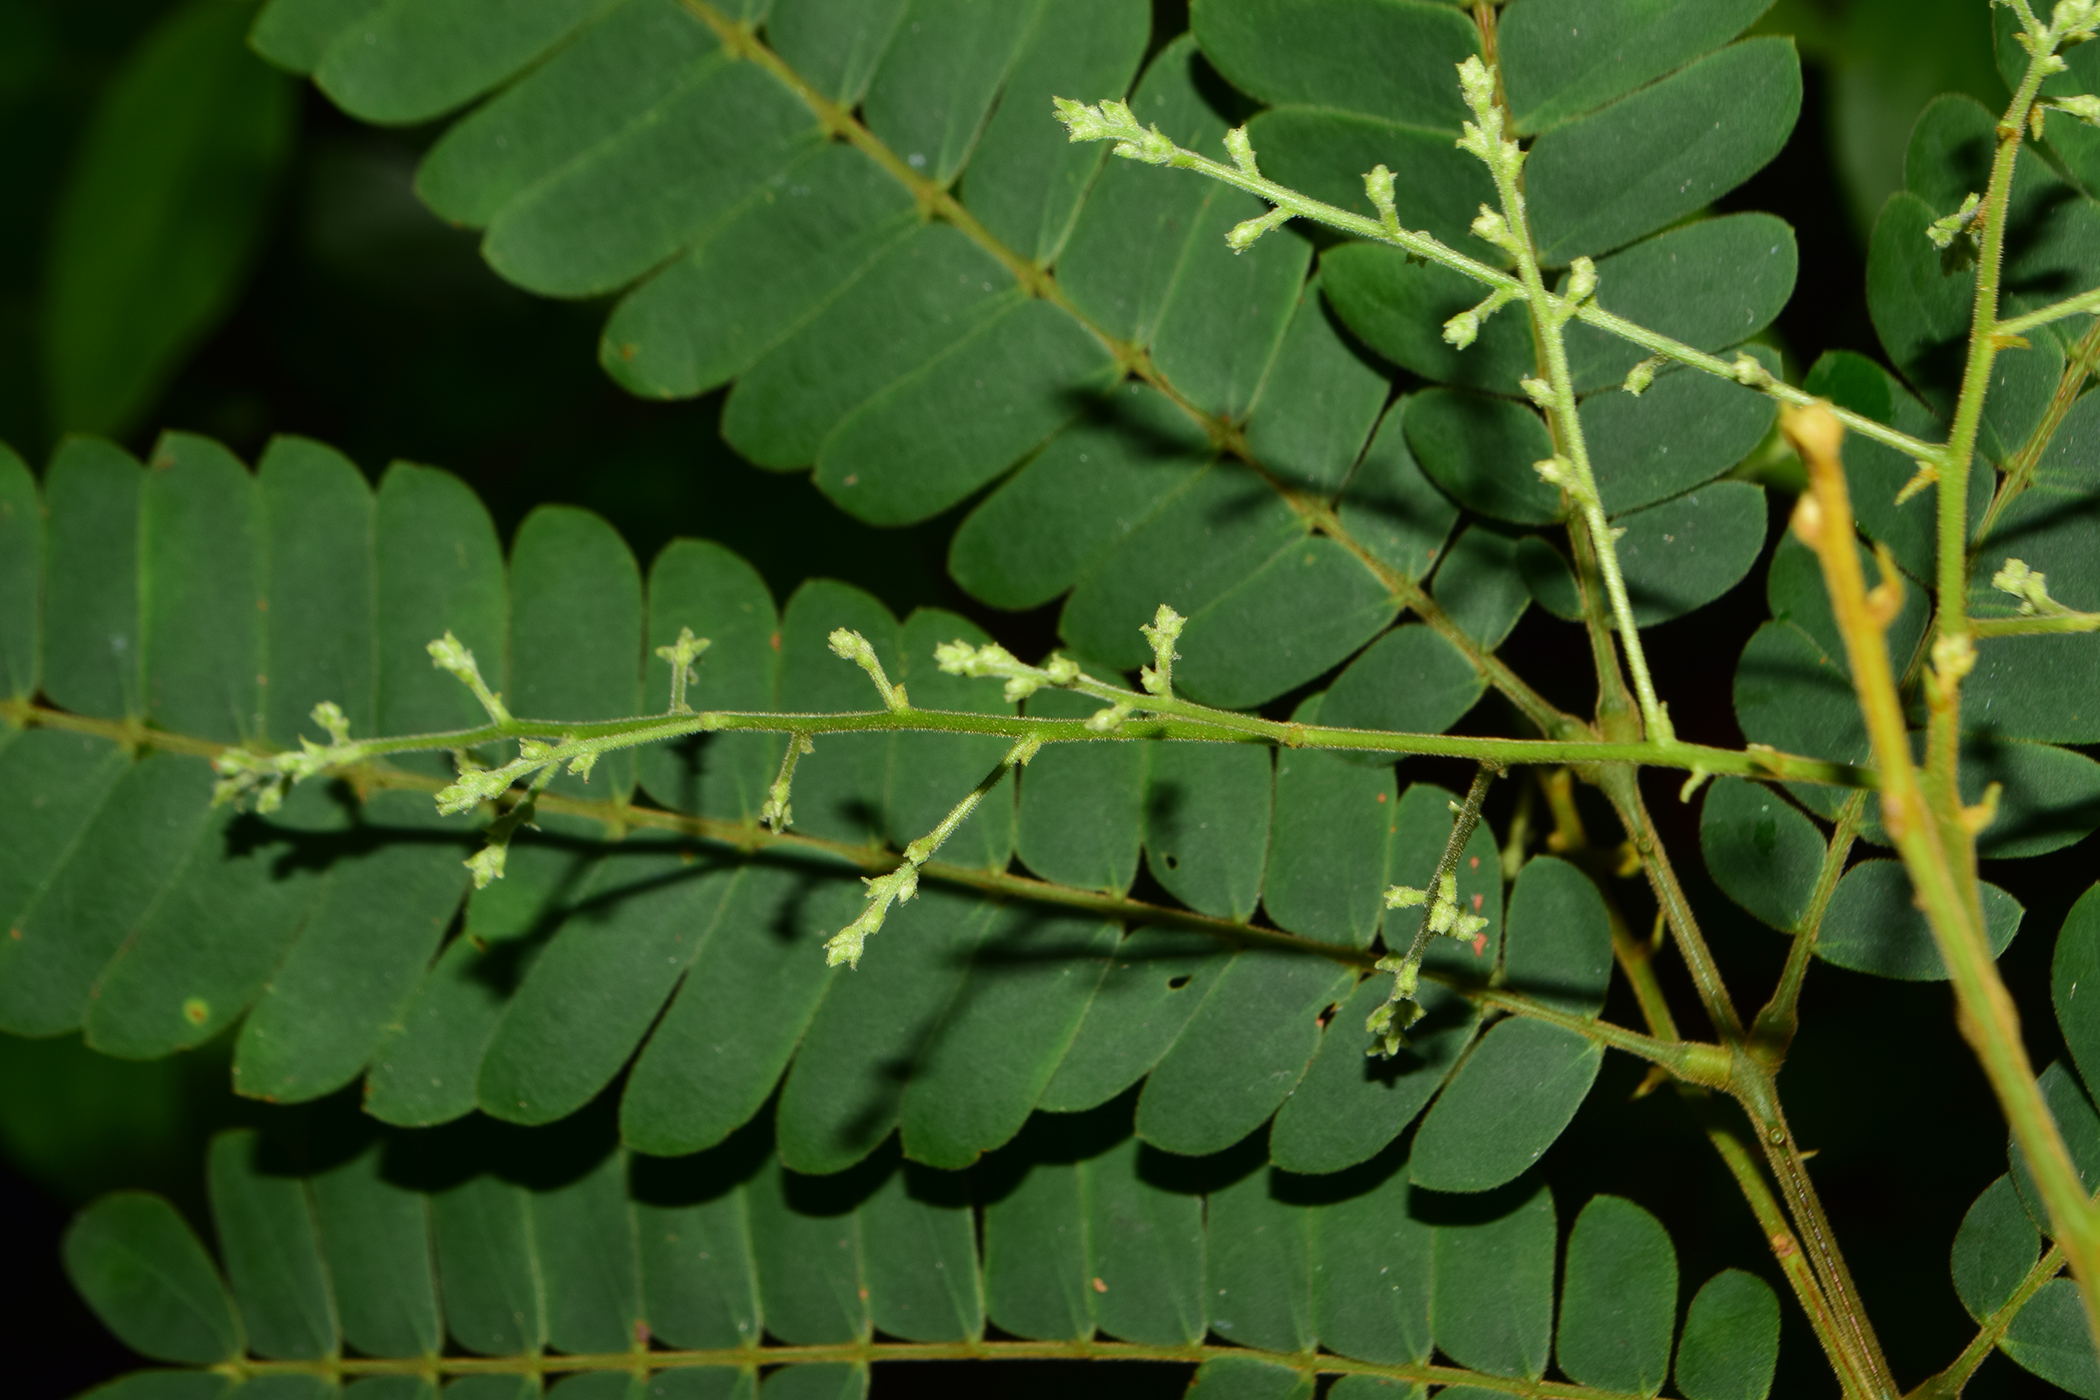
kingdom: Plantae
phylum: Tracheophyta
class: Magnoliopsida
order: Fabales
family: Fabaceae
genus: Archidendron
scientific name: Archidendron contortum
